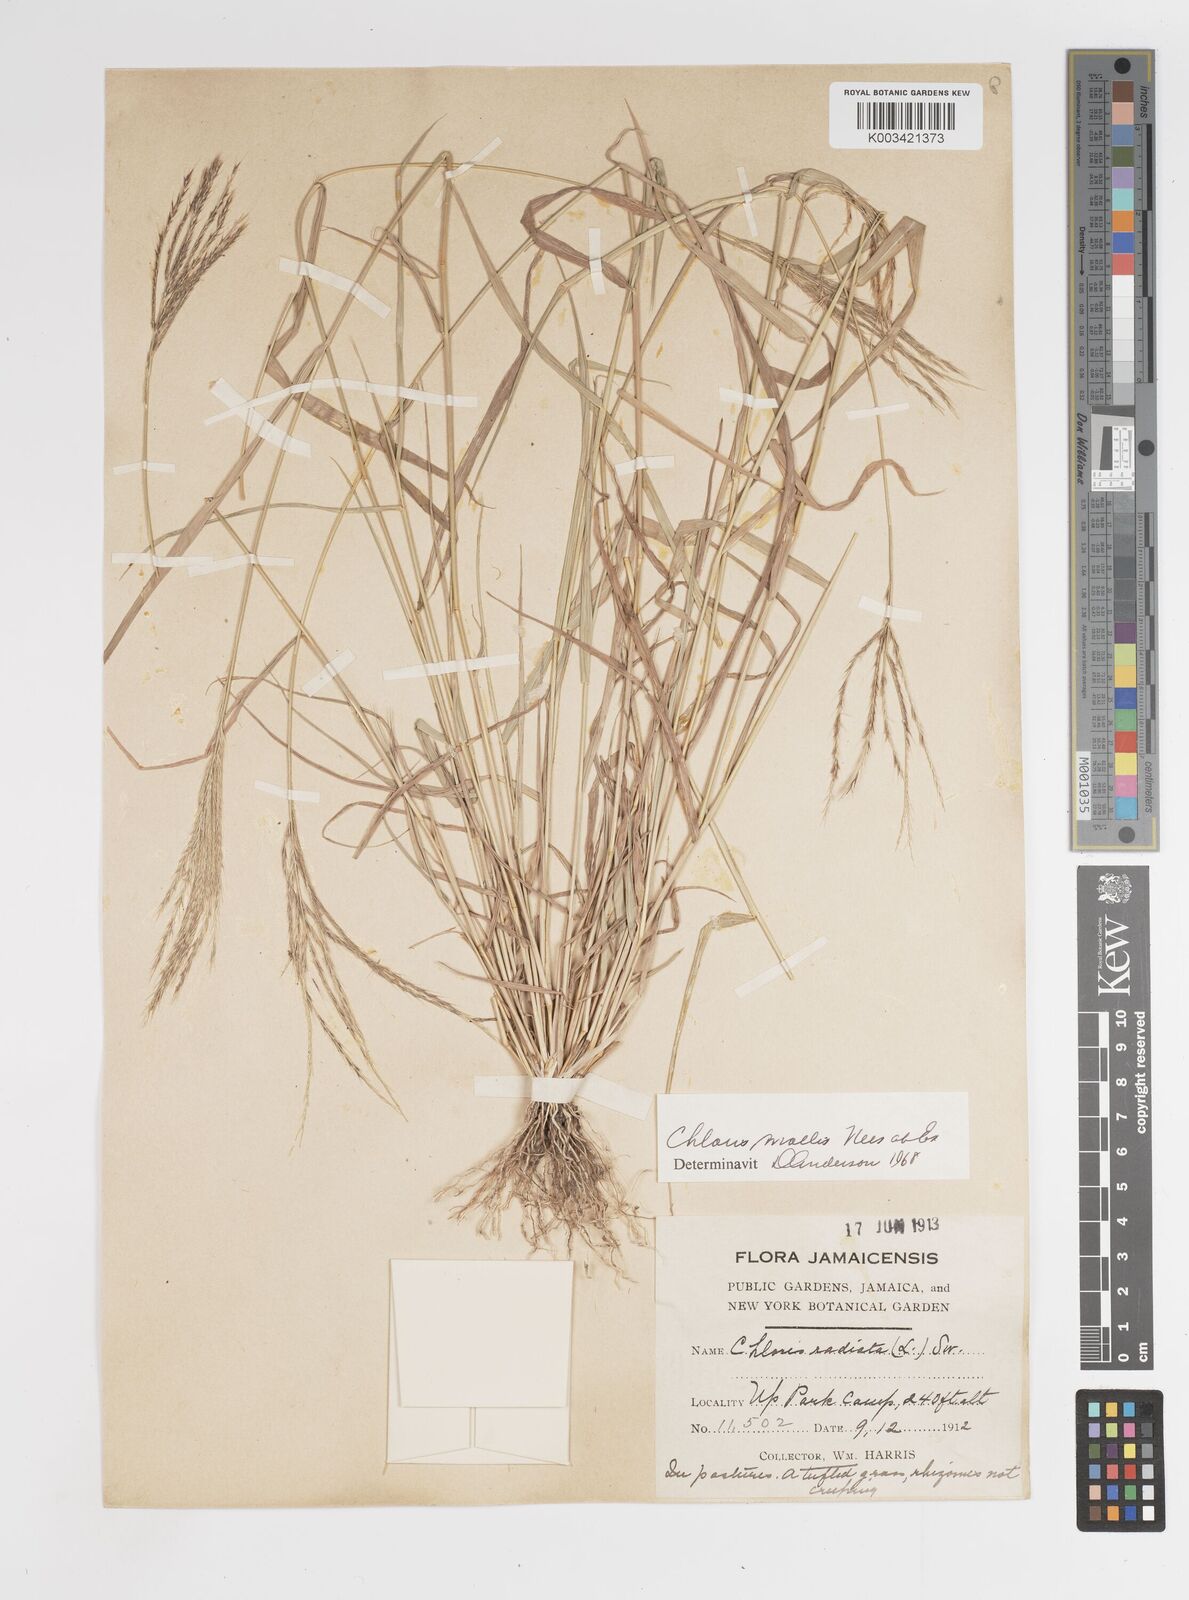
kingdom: Plantae
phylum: Tracheophyta
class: Liliopsida
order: Poales
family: Poaceae
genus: Leptochloa
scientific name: Leptochloa anisopoda
